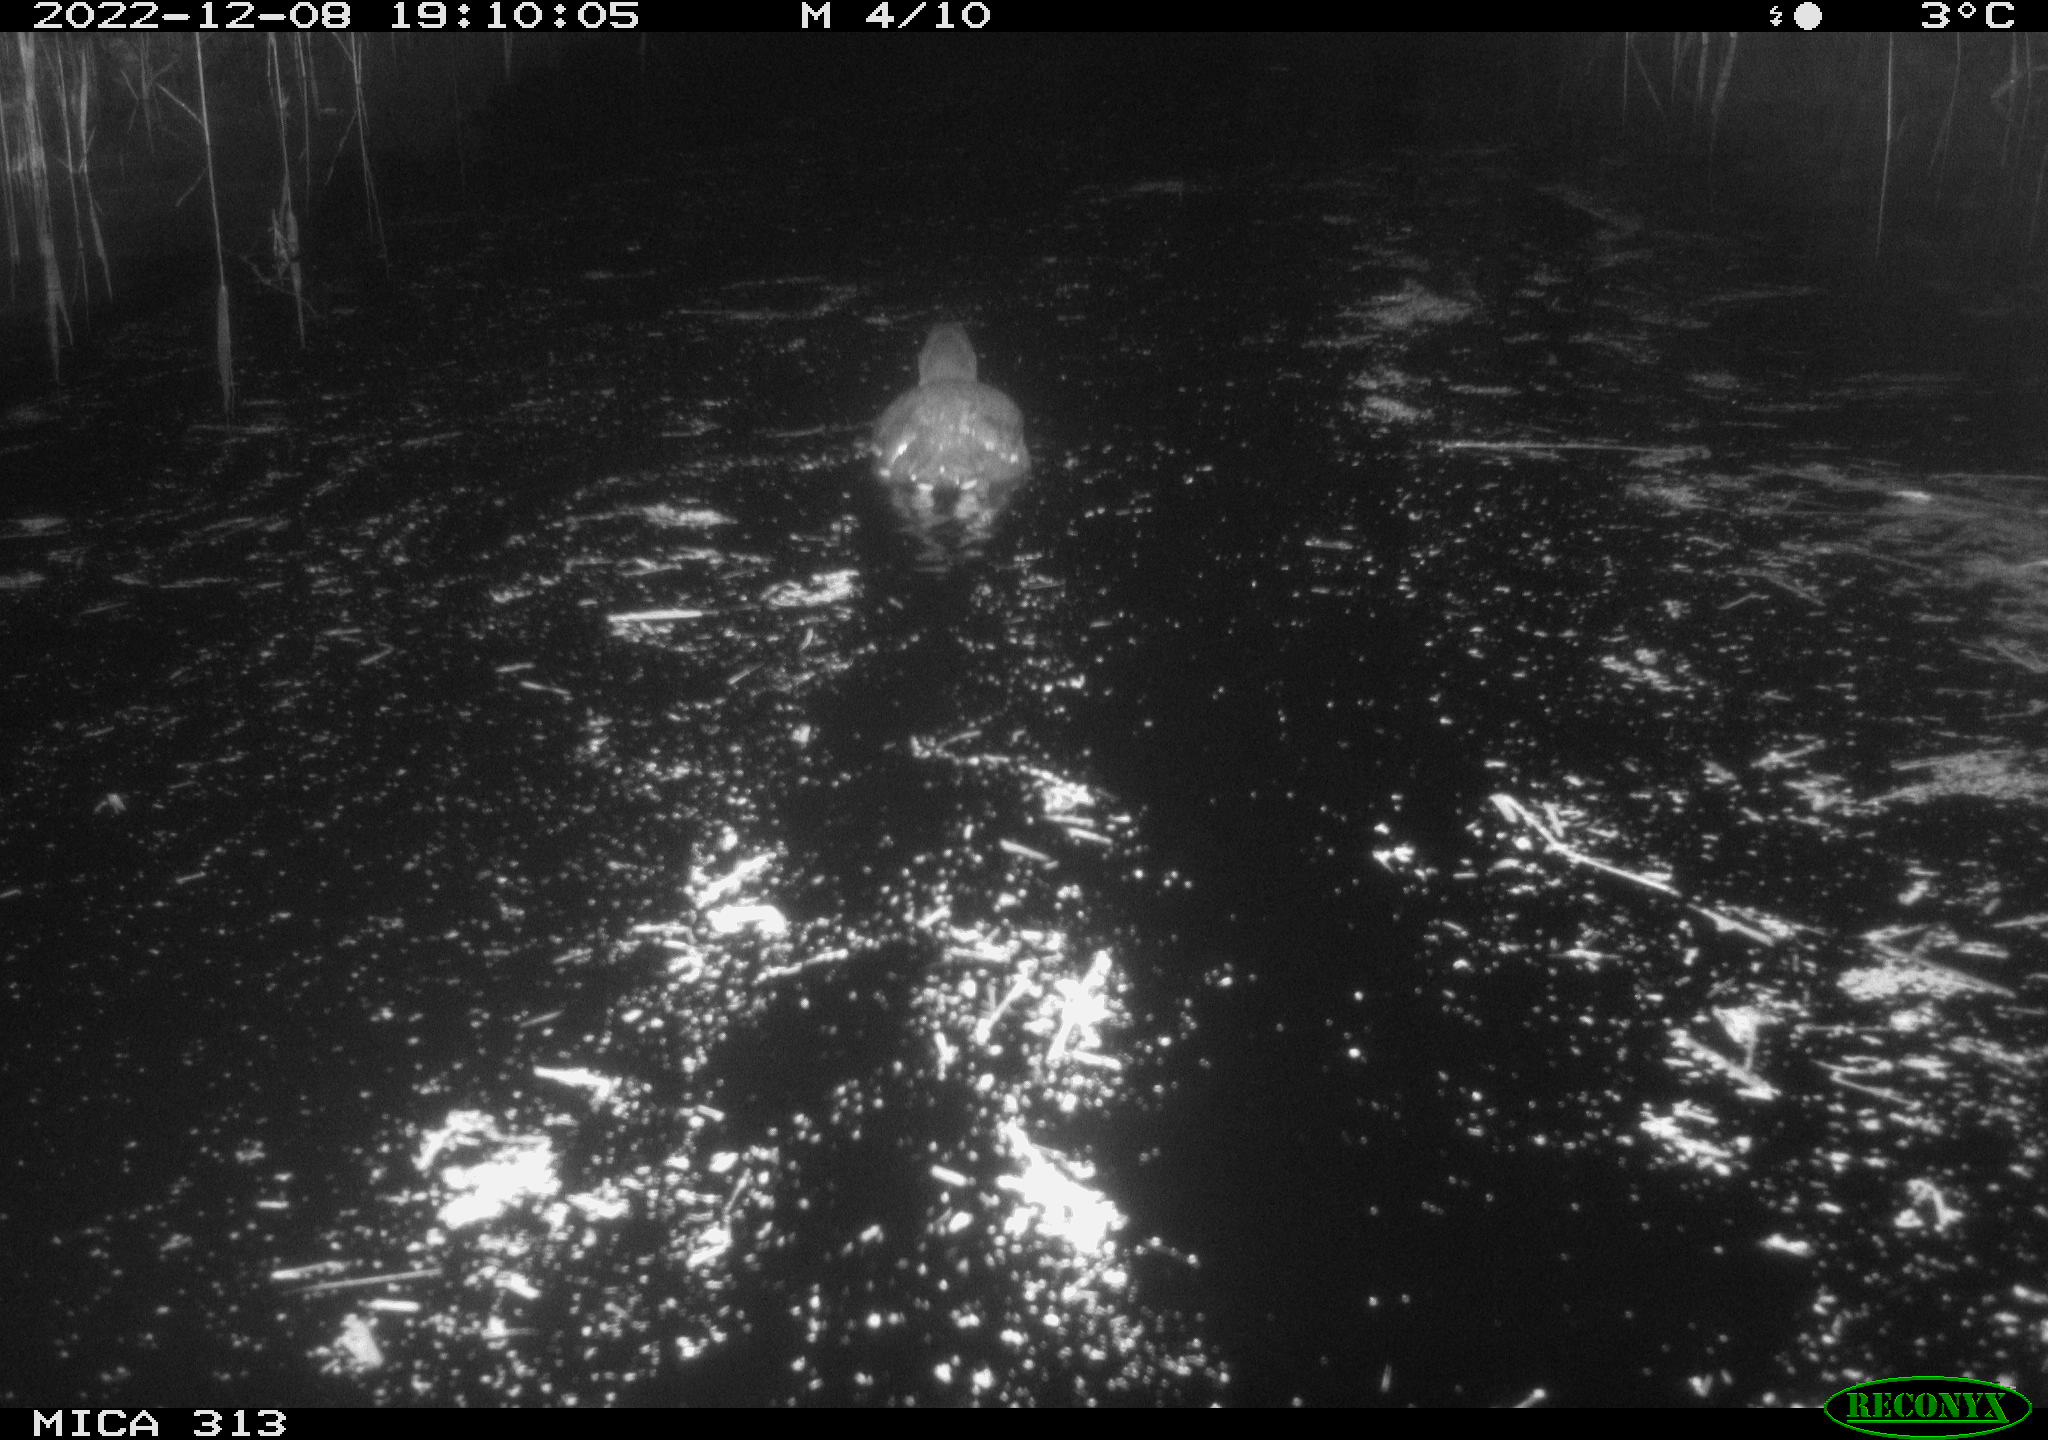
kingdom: Animalia
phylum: Chordata
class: Aves
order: Gruiformes
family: Rallidae
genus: Gallinula
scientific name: Gallinula chloropus
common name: Common moorhen
